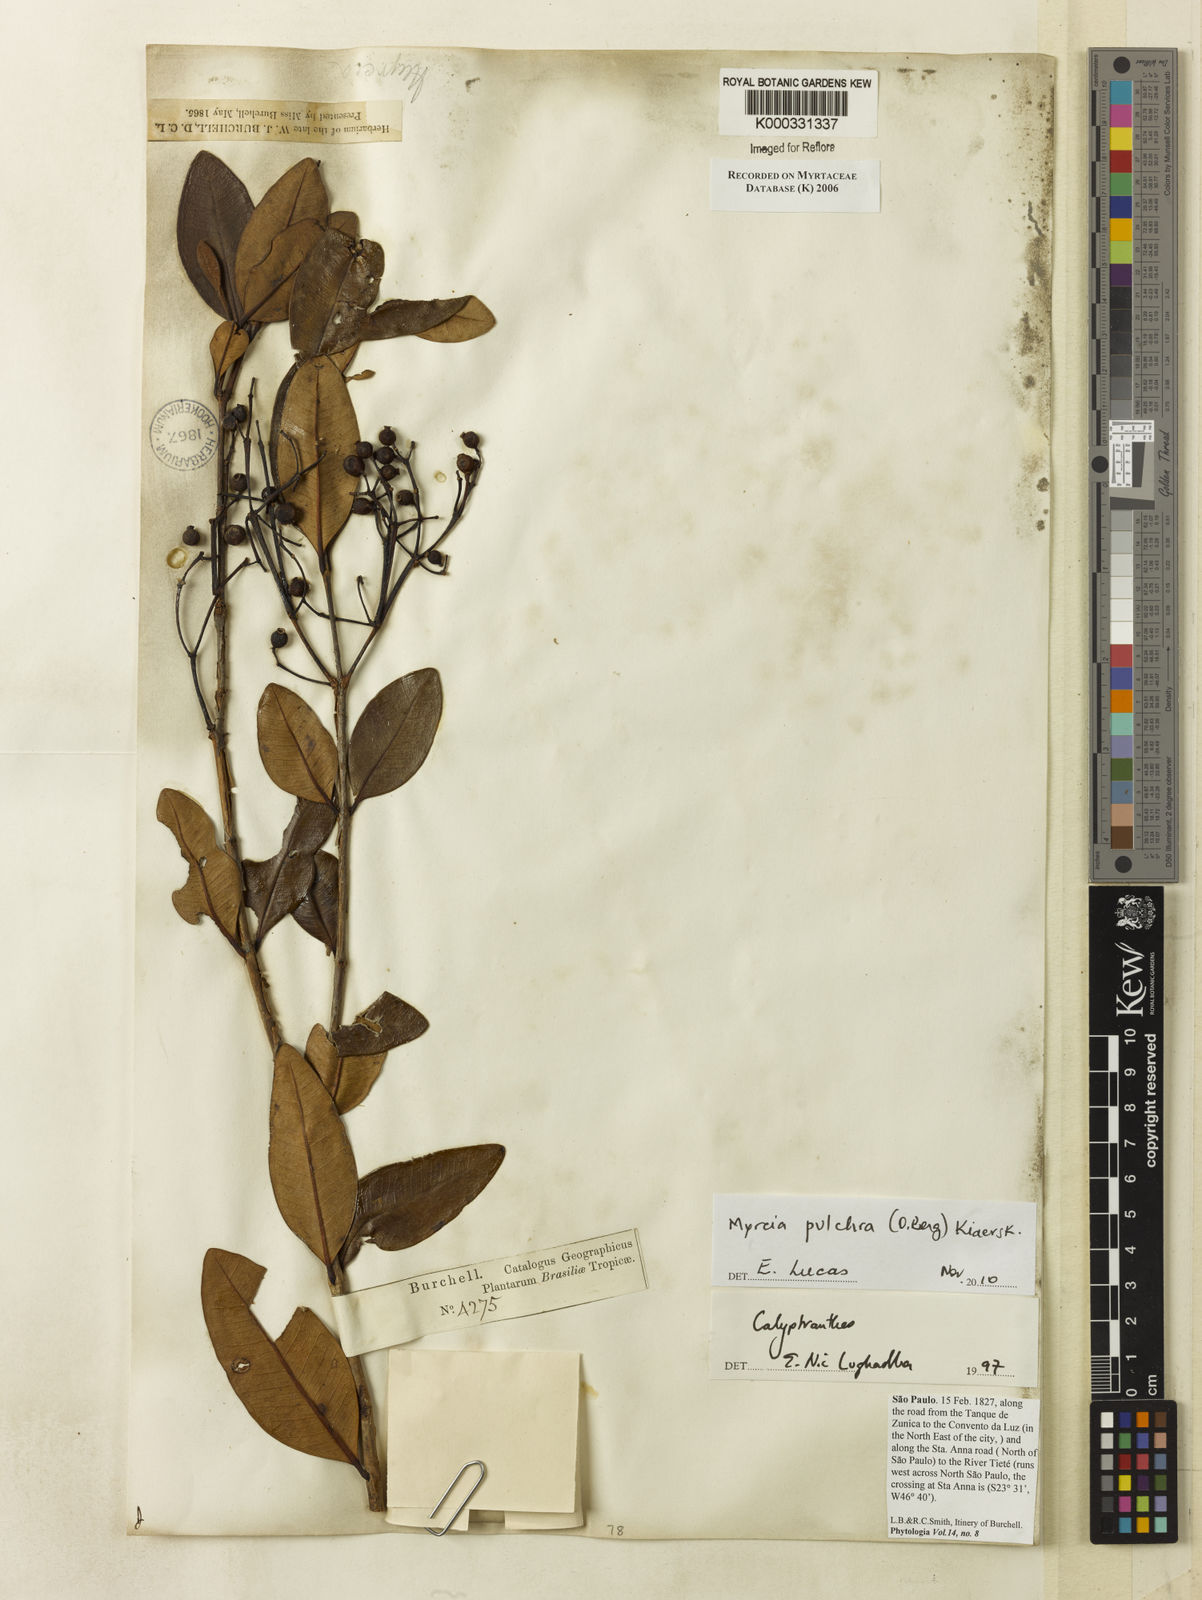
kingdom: Plantae
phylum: Tracheophyta
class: Magnoliopsida
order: Myrtales
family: Myrtaceae
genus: Calyptranthes
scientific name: Calyptranthes
